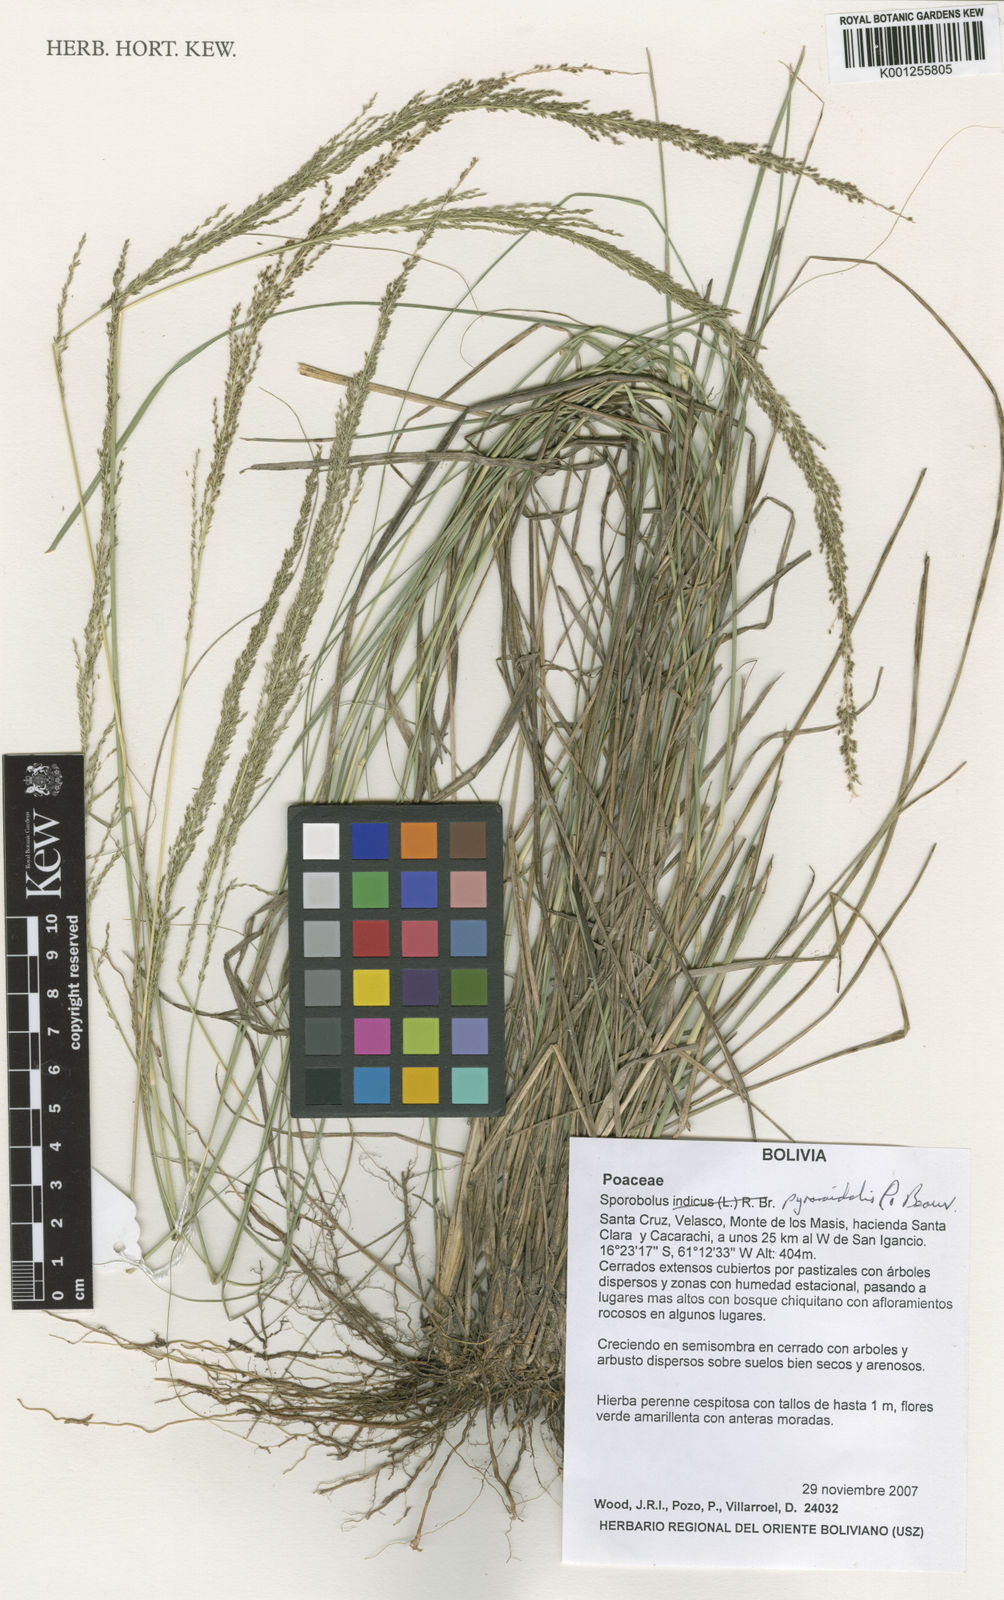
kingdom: Plantae
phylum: Tracheophyta
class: Liliopsida
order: Poales
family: Poaceae
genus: Sporobolus
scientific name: Sporobolus pyramidalis
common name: West indian dropseed
